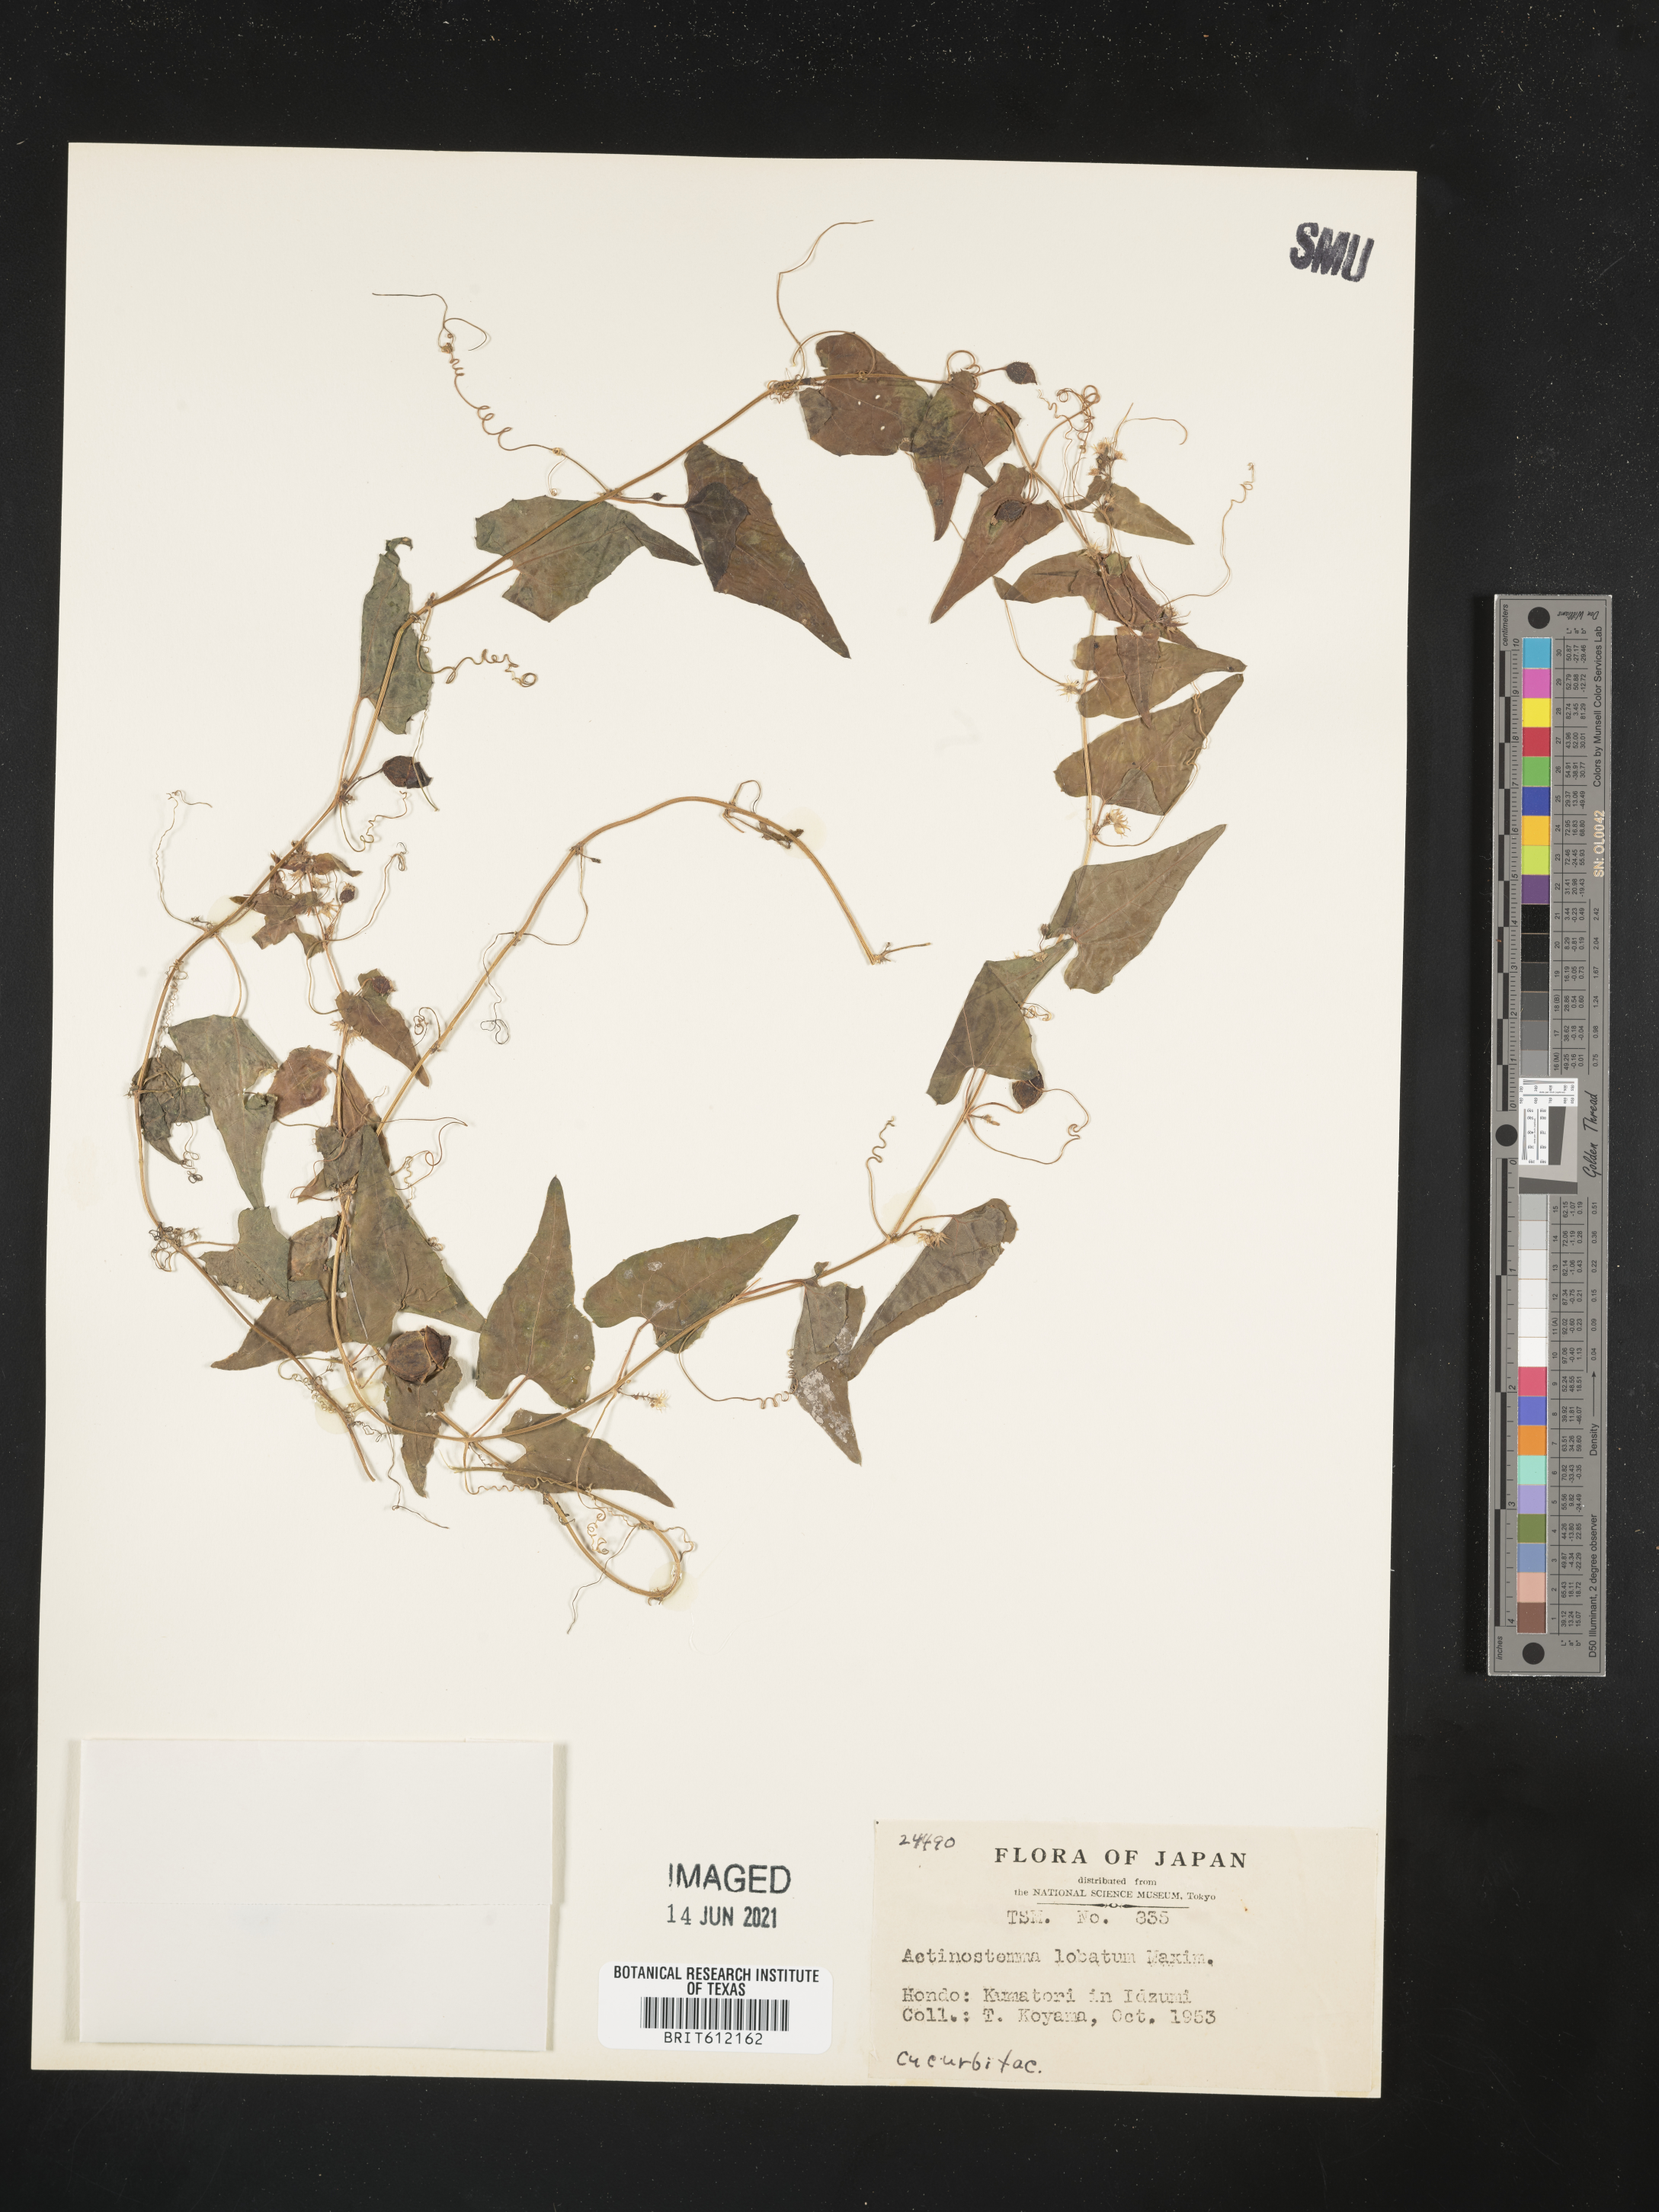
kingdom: Plantae
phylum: Tracheophyta
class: Magnoliopsida
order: Cucurbitales
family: Cucurbitaceae
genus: Actinostemma
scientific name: Actinostemma lobatum
